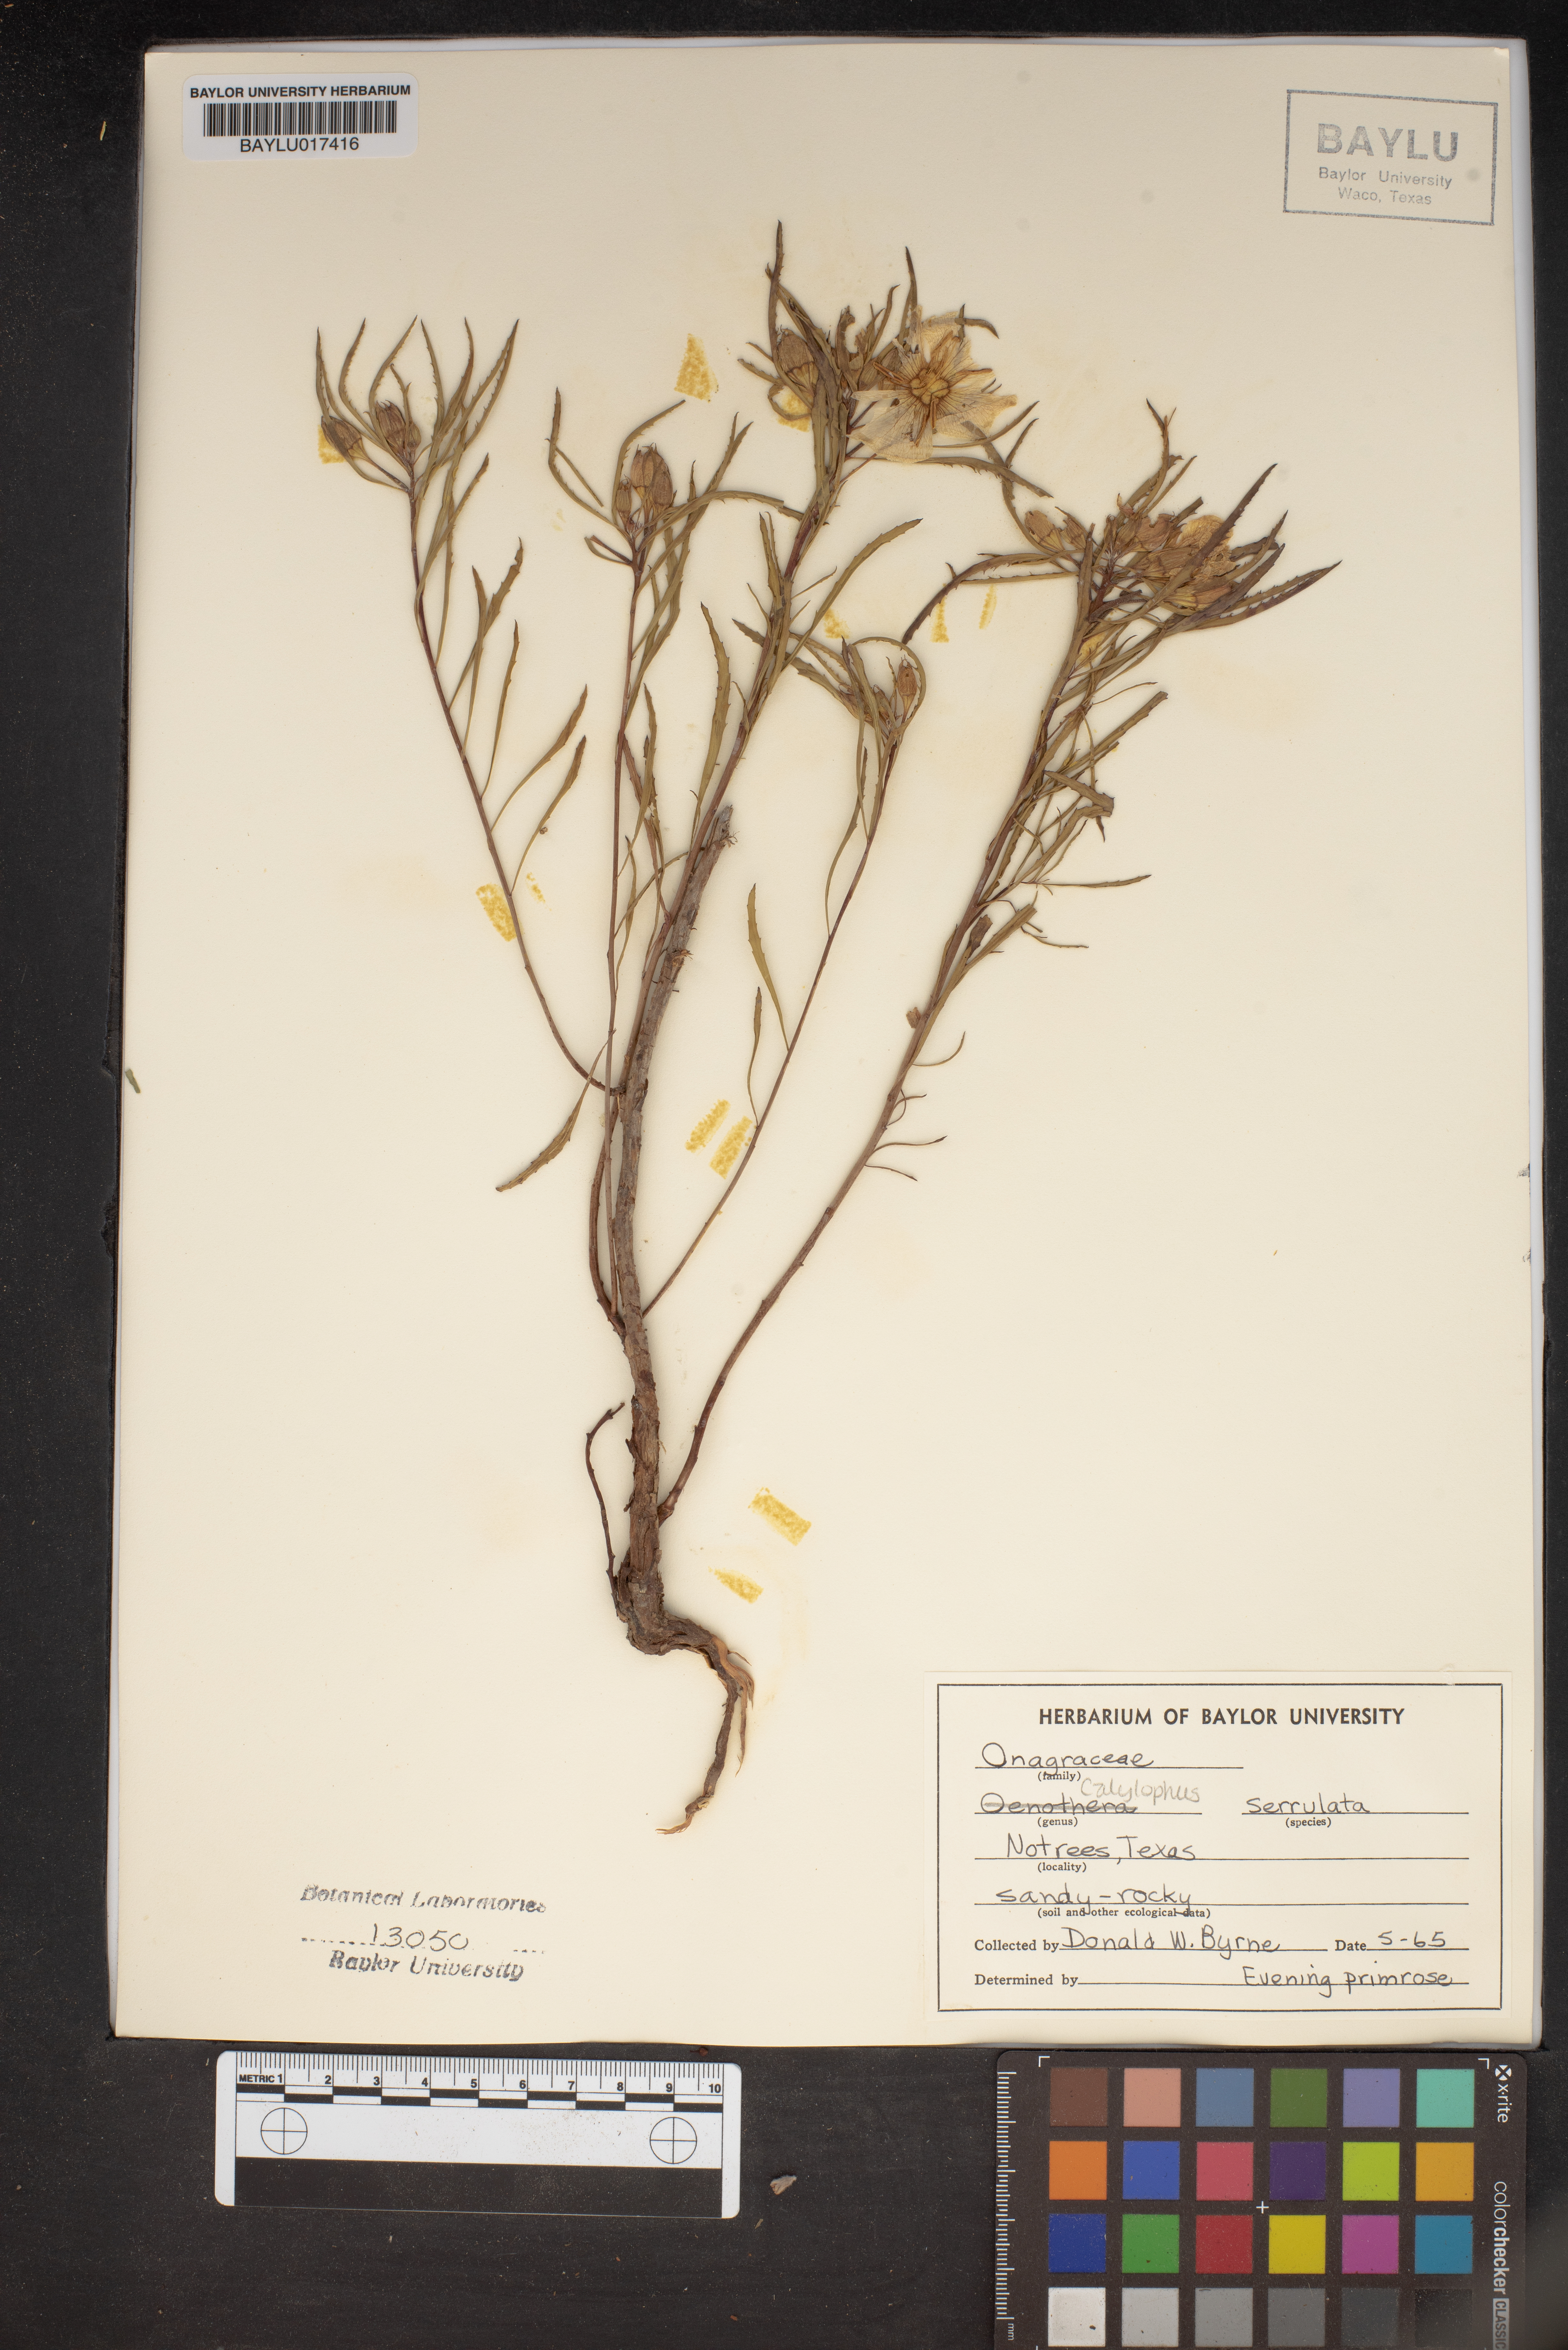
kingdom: Plantae
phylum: Tracheophyta
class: Magnoliopsida
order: Myrtales
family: Onagraceae
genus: Oenothera
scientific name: Oenothera serrulata
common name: Half-shrub calylophus
